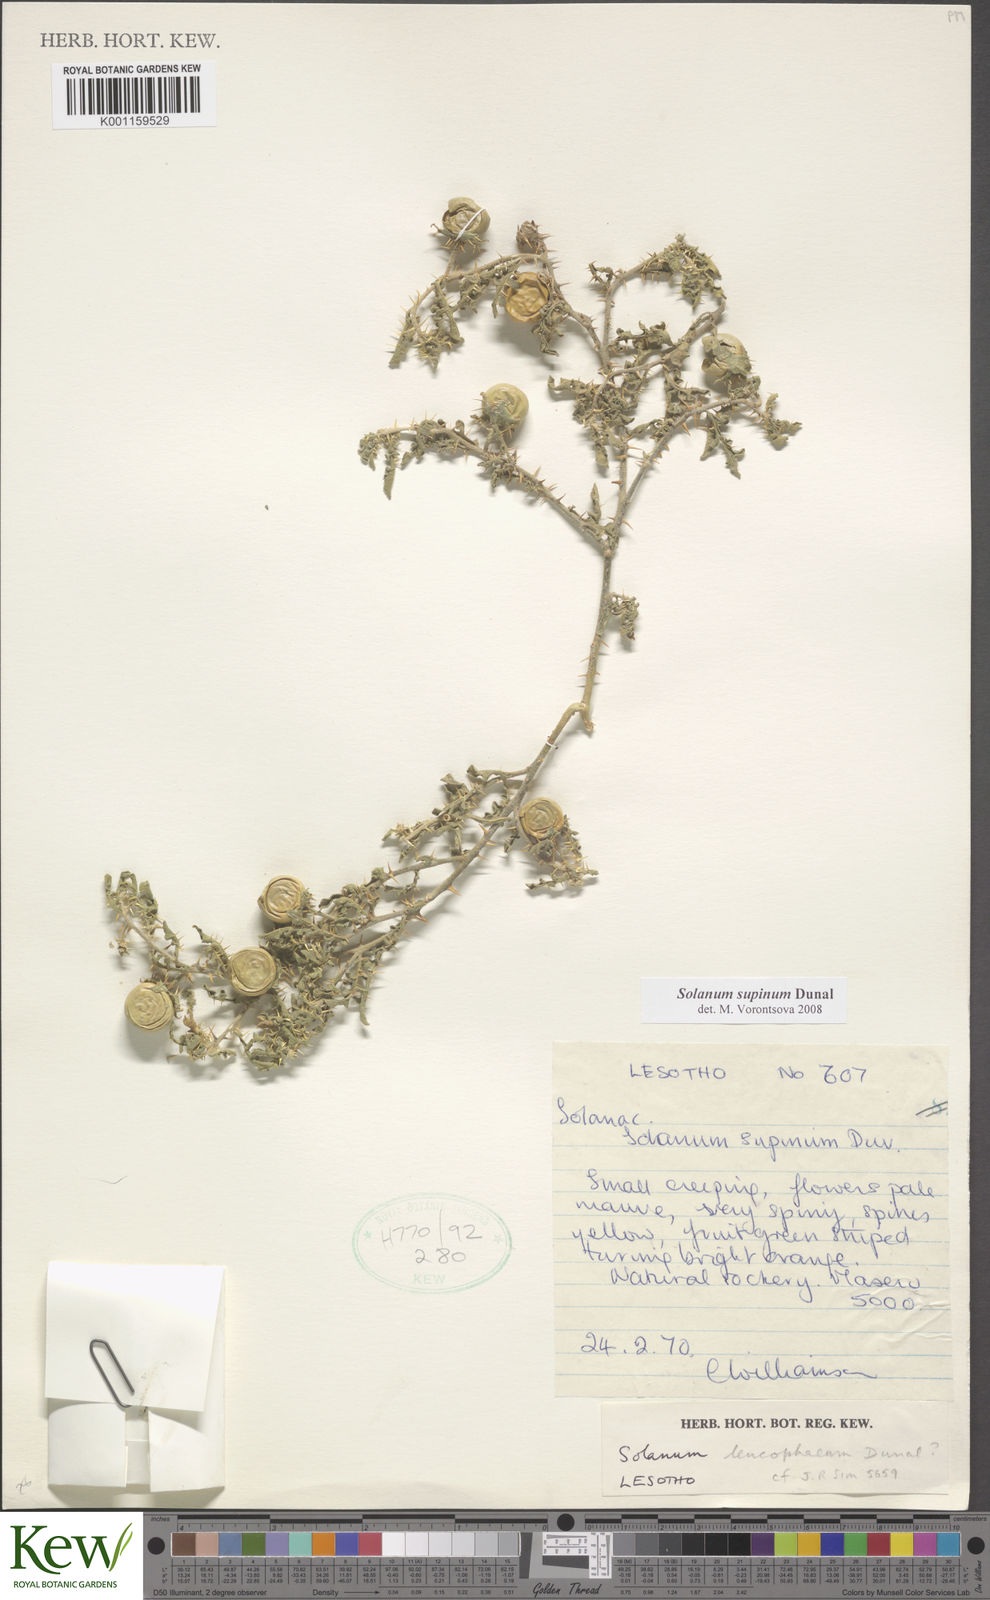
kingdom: Plantae
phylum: Tracheophyta
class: Magnoliopsida
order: Solanales
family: Solanaceae
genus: Solanum
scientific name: Solanum supinum
